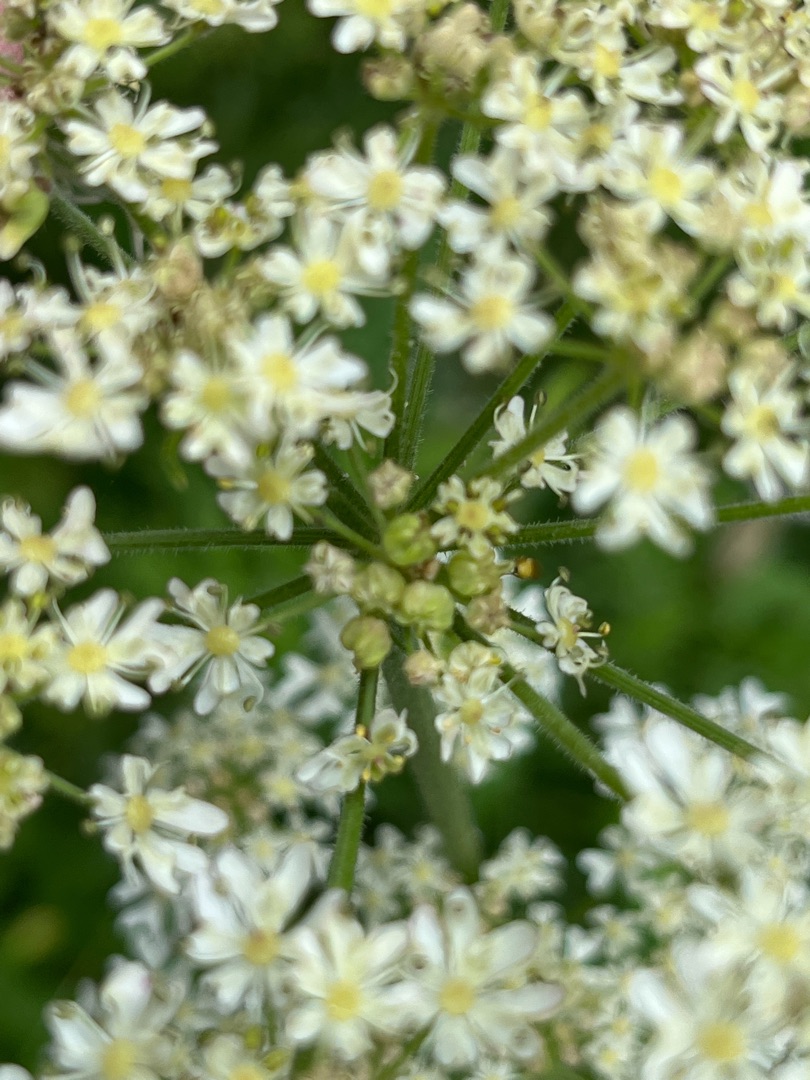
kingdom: Animalia
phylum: Arthropoda
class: Insecta
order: Diptera
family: Cecidomyiidae
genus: Contarinia
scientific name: Contarinia nicolayi
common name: Bjørnekloblomstgalmyg
